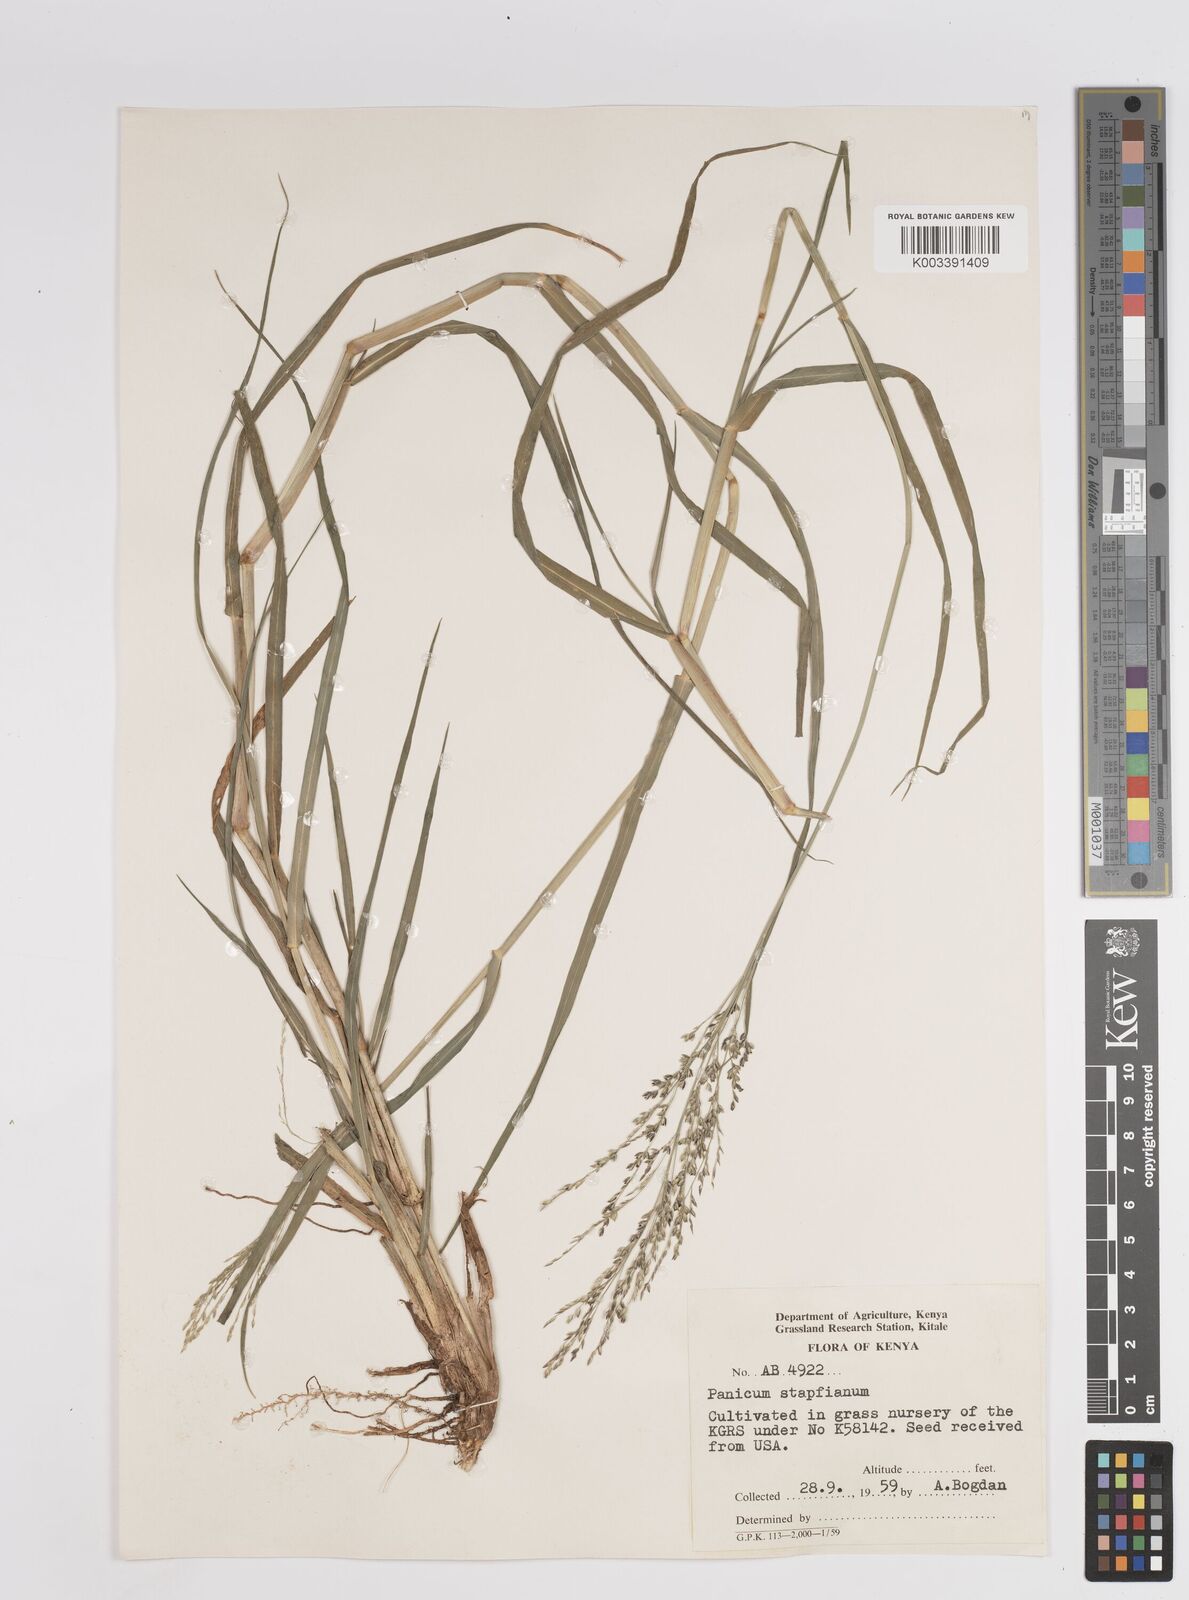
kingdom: Plantae
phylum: Tracheophyta
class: Liliopsida
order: Poales
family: Poaceae
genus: Panicum
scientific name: Panicum
